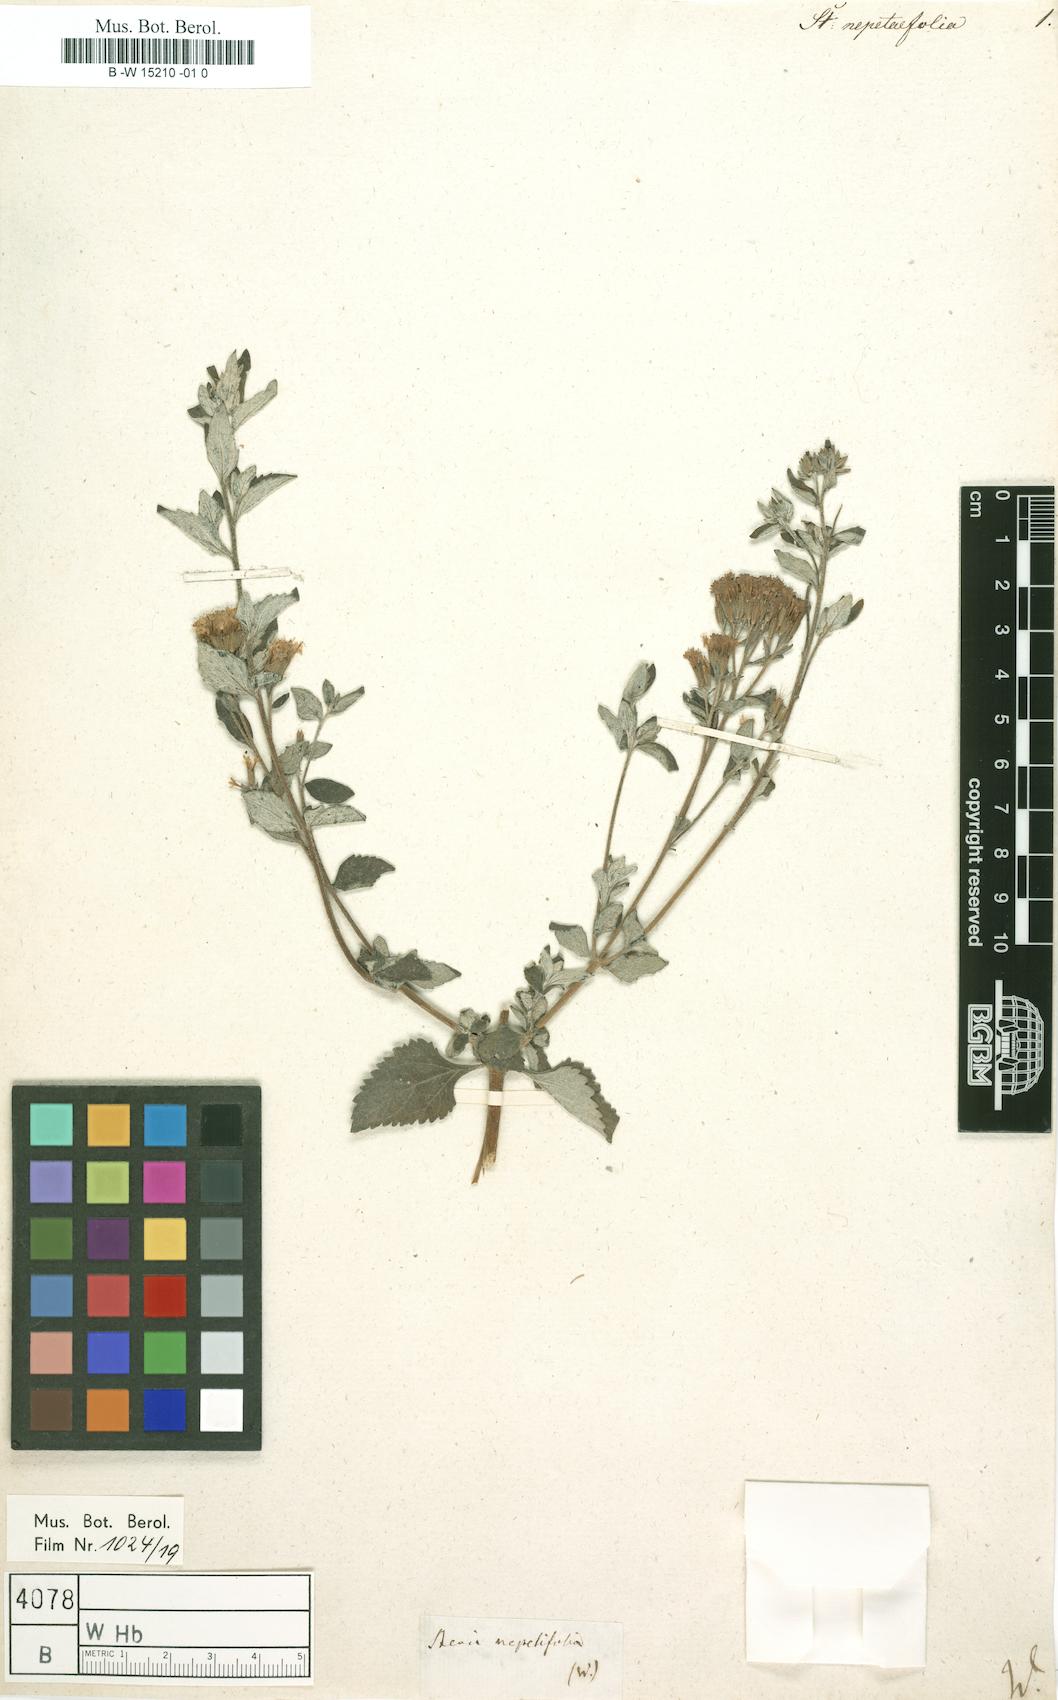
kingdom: Plantae
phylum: Tracheophyta
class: Magnoliopsida
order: Asterales
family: Asteraceae
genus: Stevia
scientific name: Stevia
